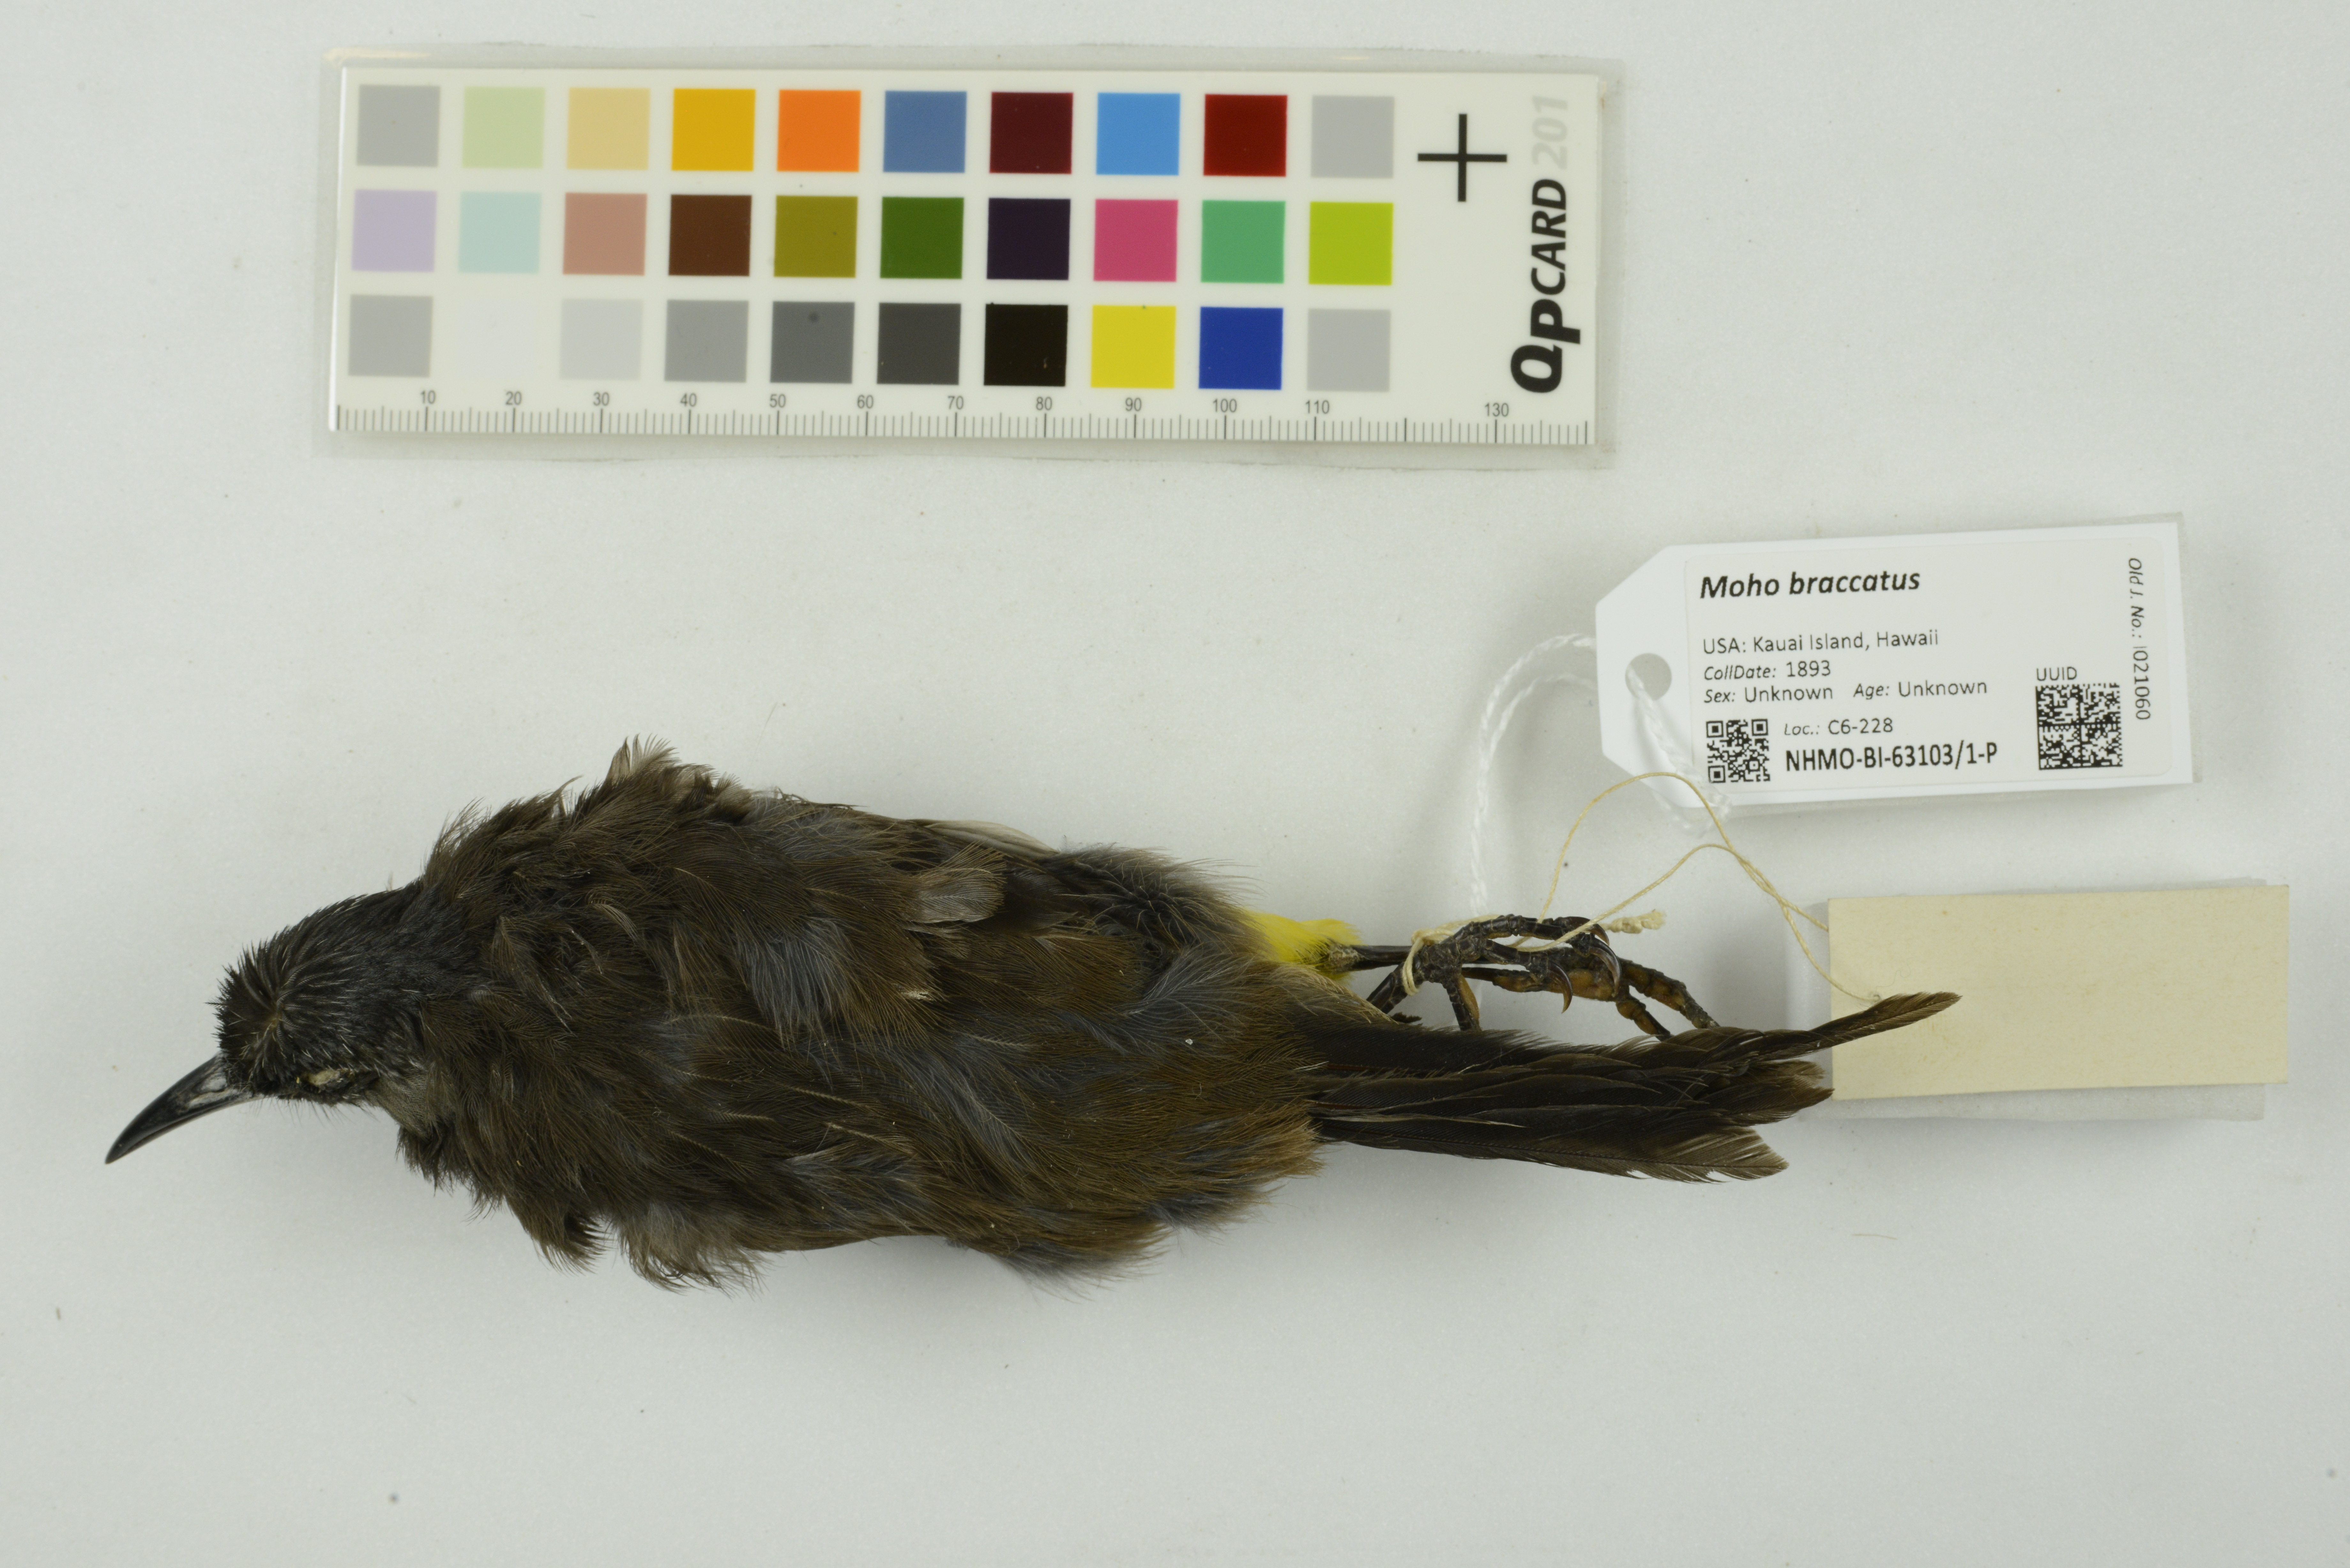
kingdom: Animalia
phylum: Chordata
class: Aves
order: Passeriformes
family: Mohoidae
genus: Moho
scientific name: Moho braccatus
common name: Kauai oo
